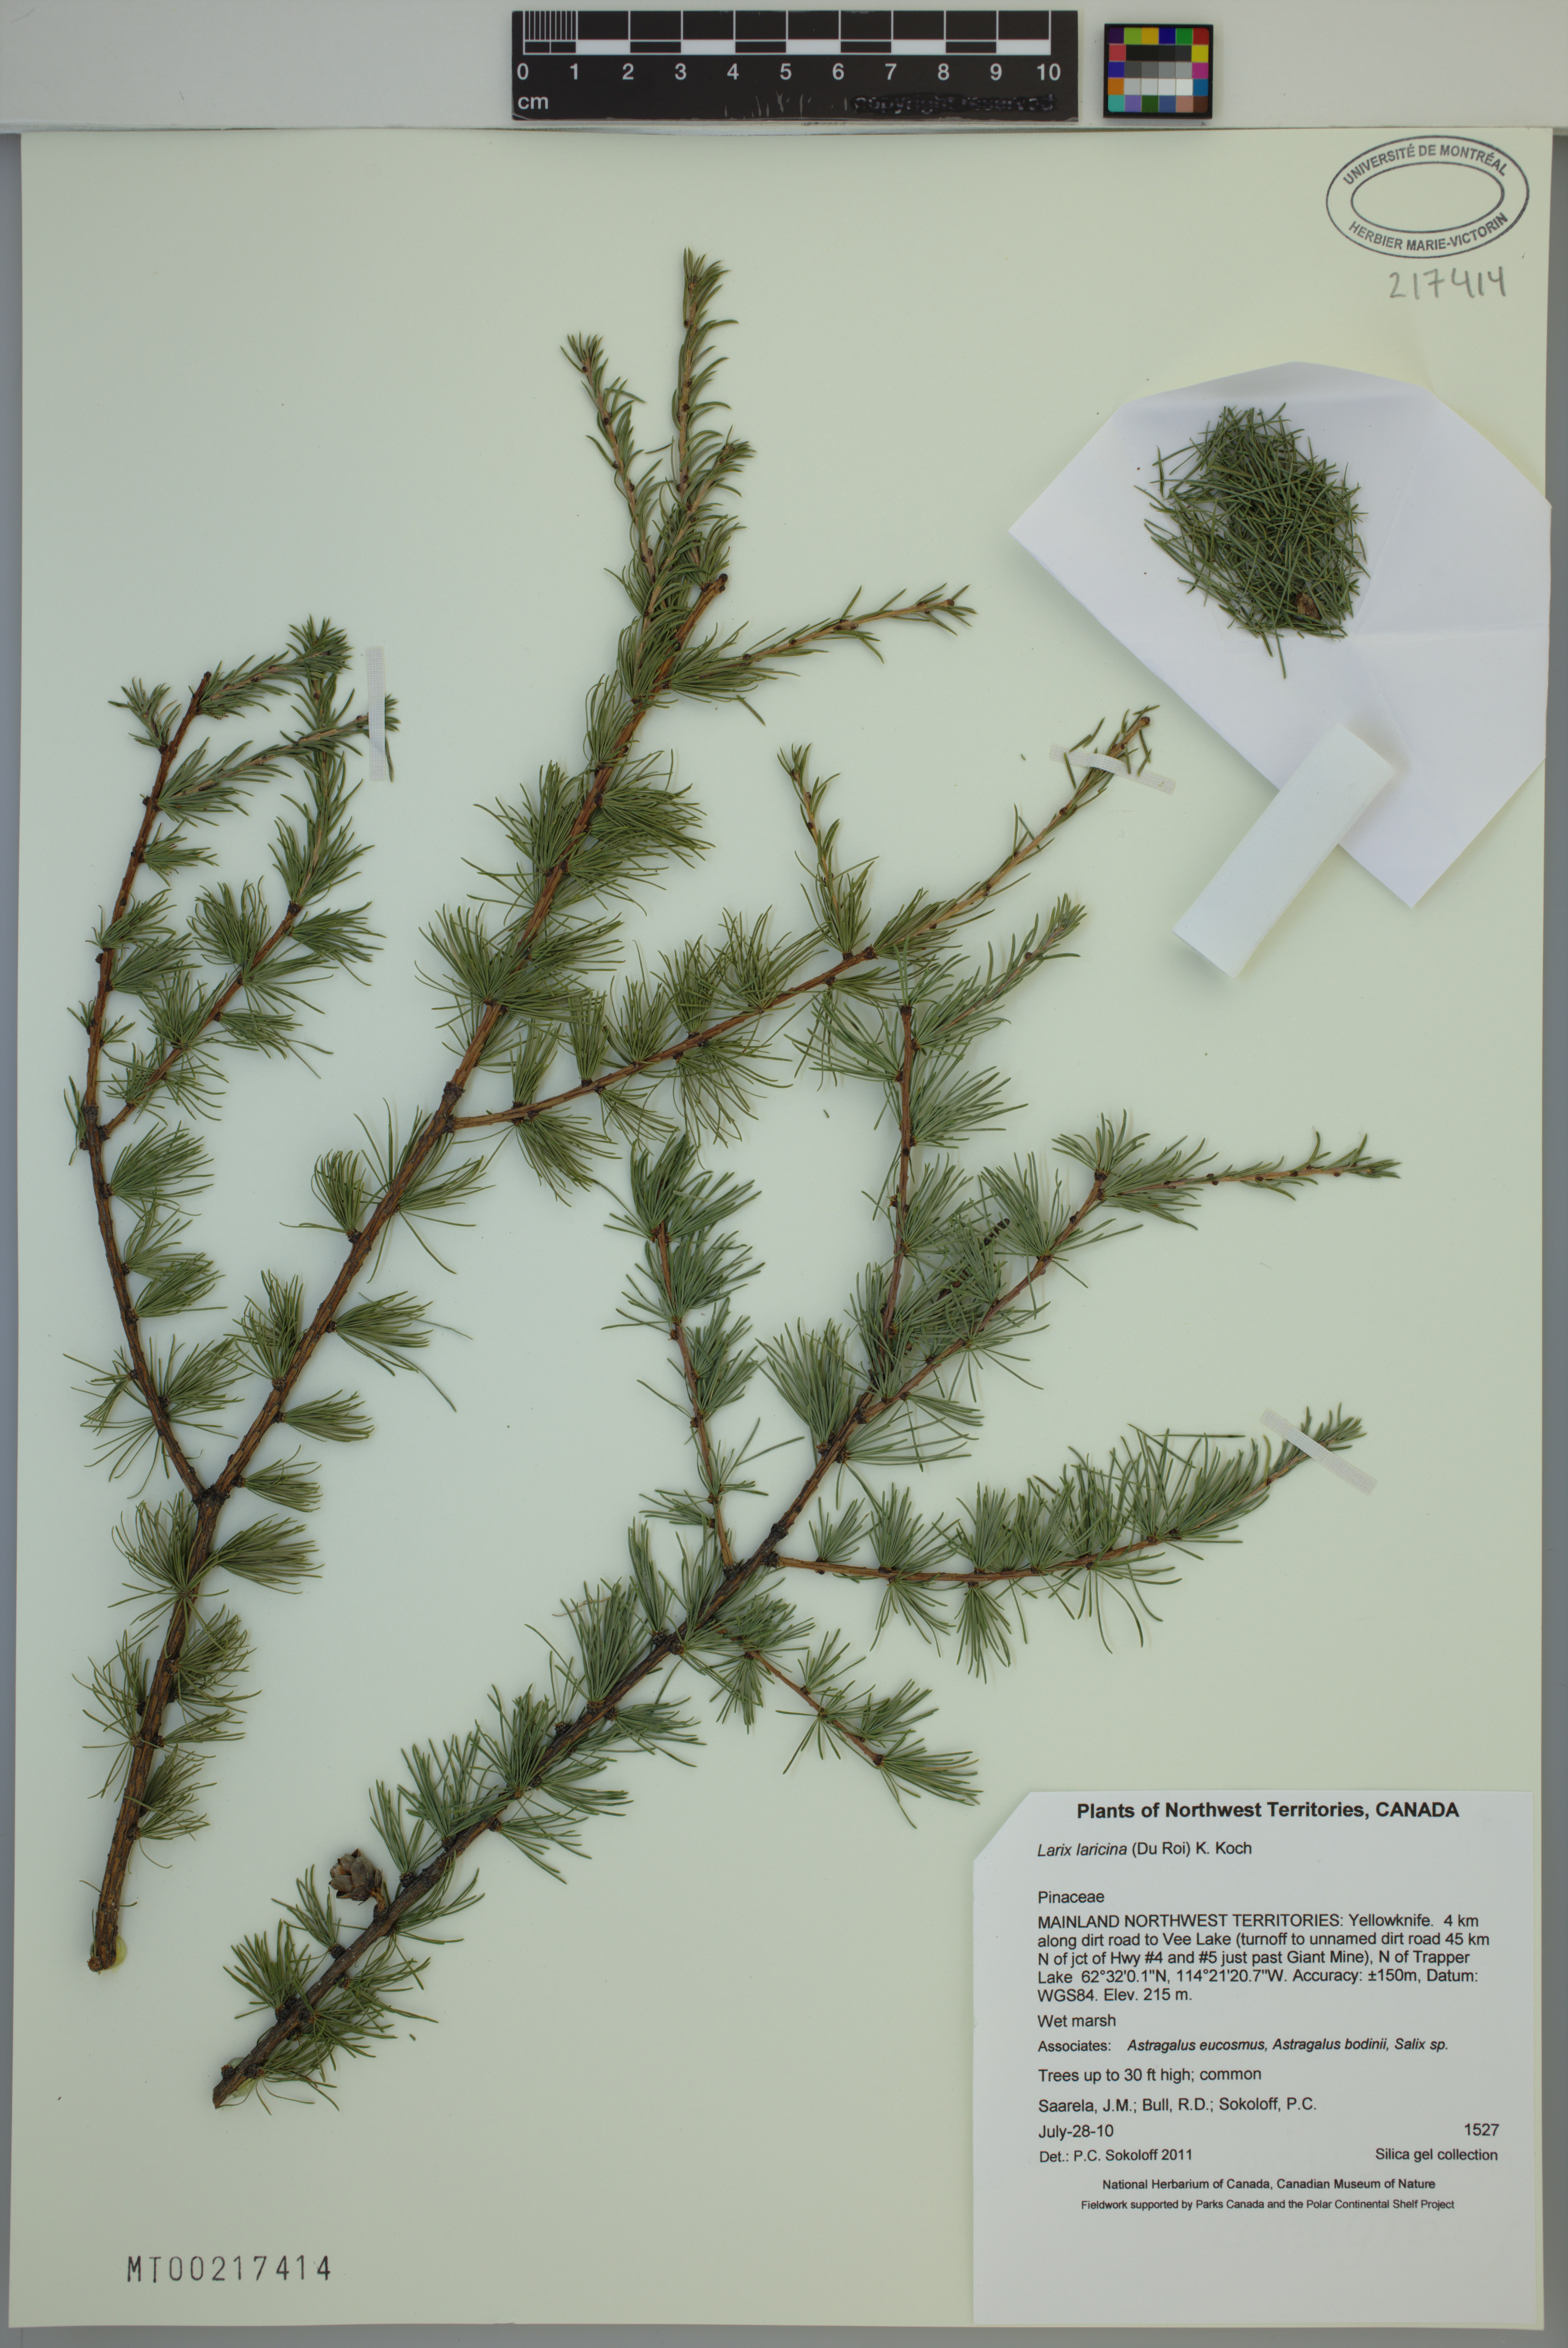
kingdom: Plantae
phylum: Tracheophyta
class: Pinopsida
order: Pinales
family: Pinaceae
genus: Larix
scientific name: Larix laricina
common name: American larch
